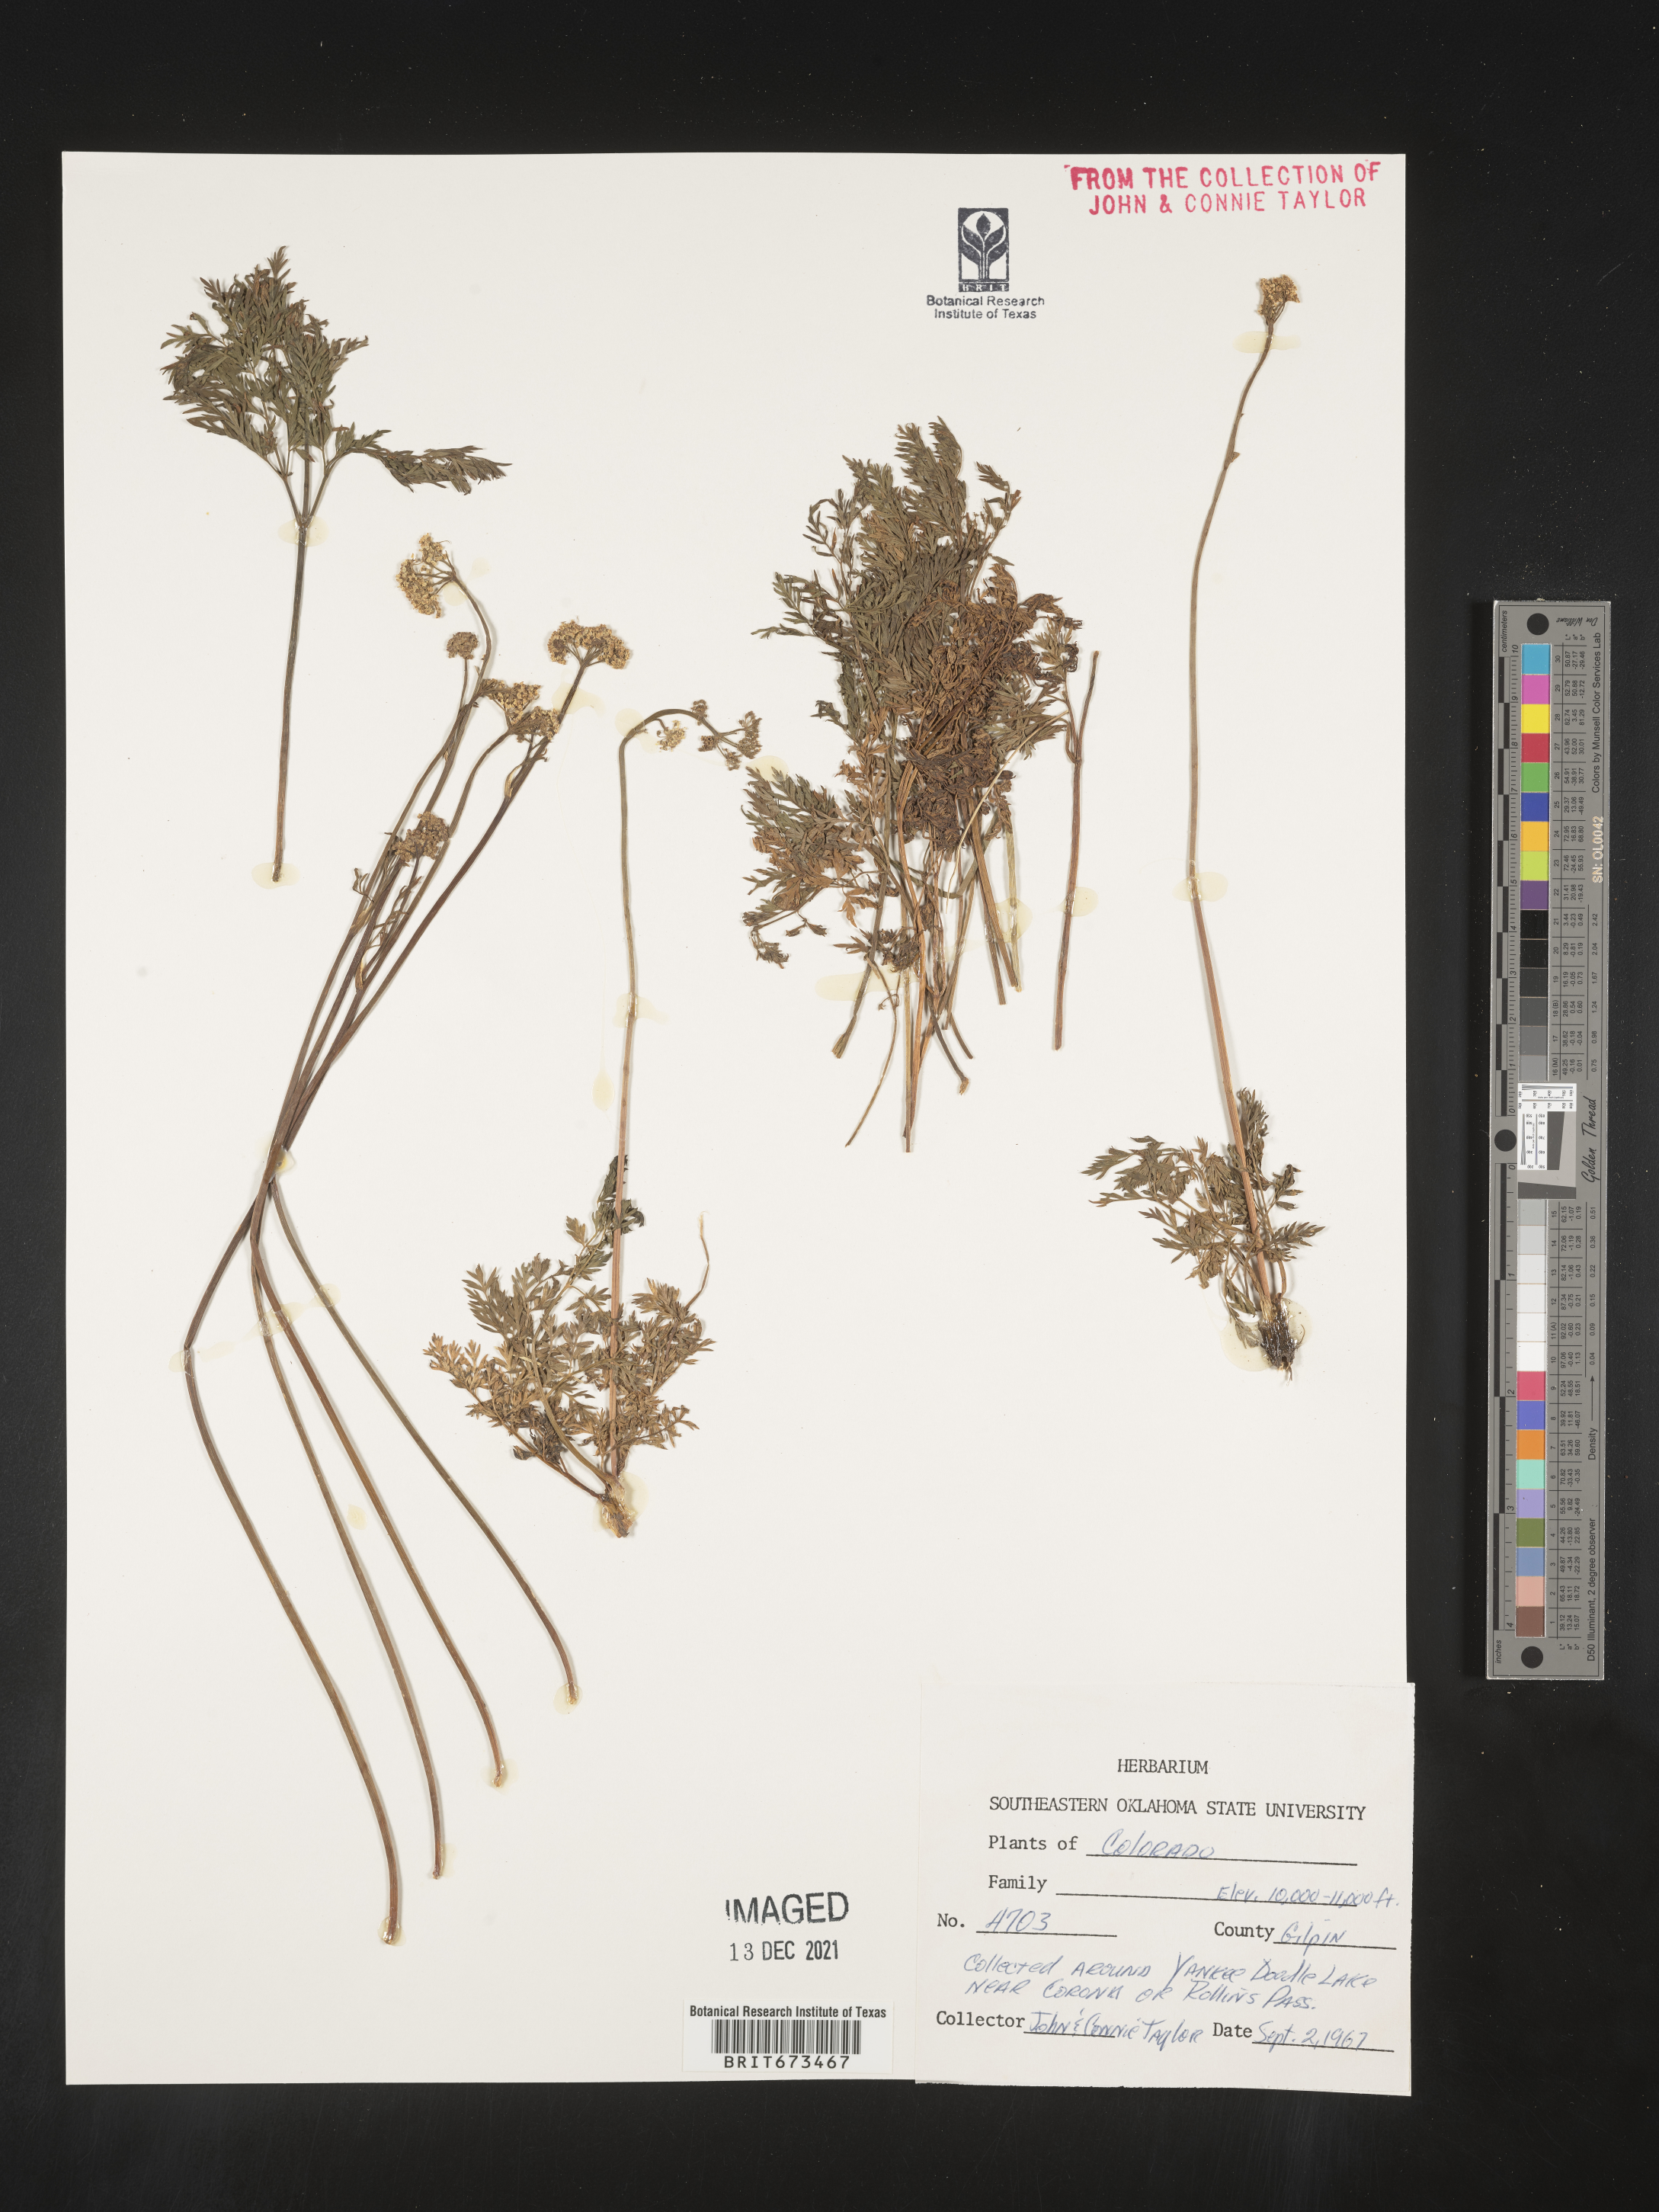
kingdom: Plantae
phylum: Tracheophyta
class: Magnoliopsida
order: Apiales
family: Apiaceae
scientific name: Apiaceae
